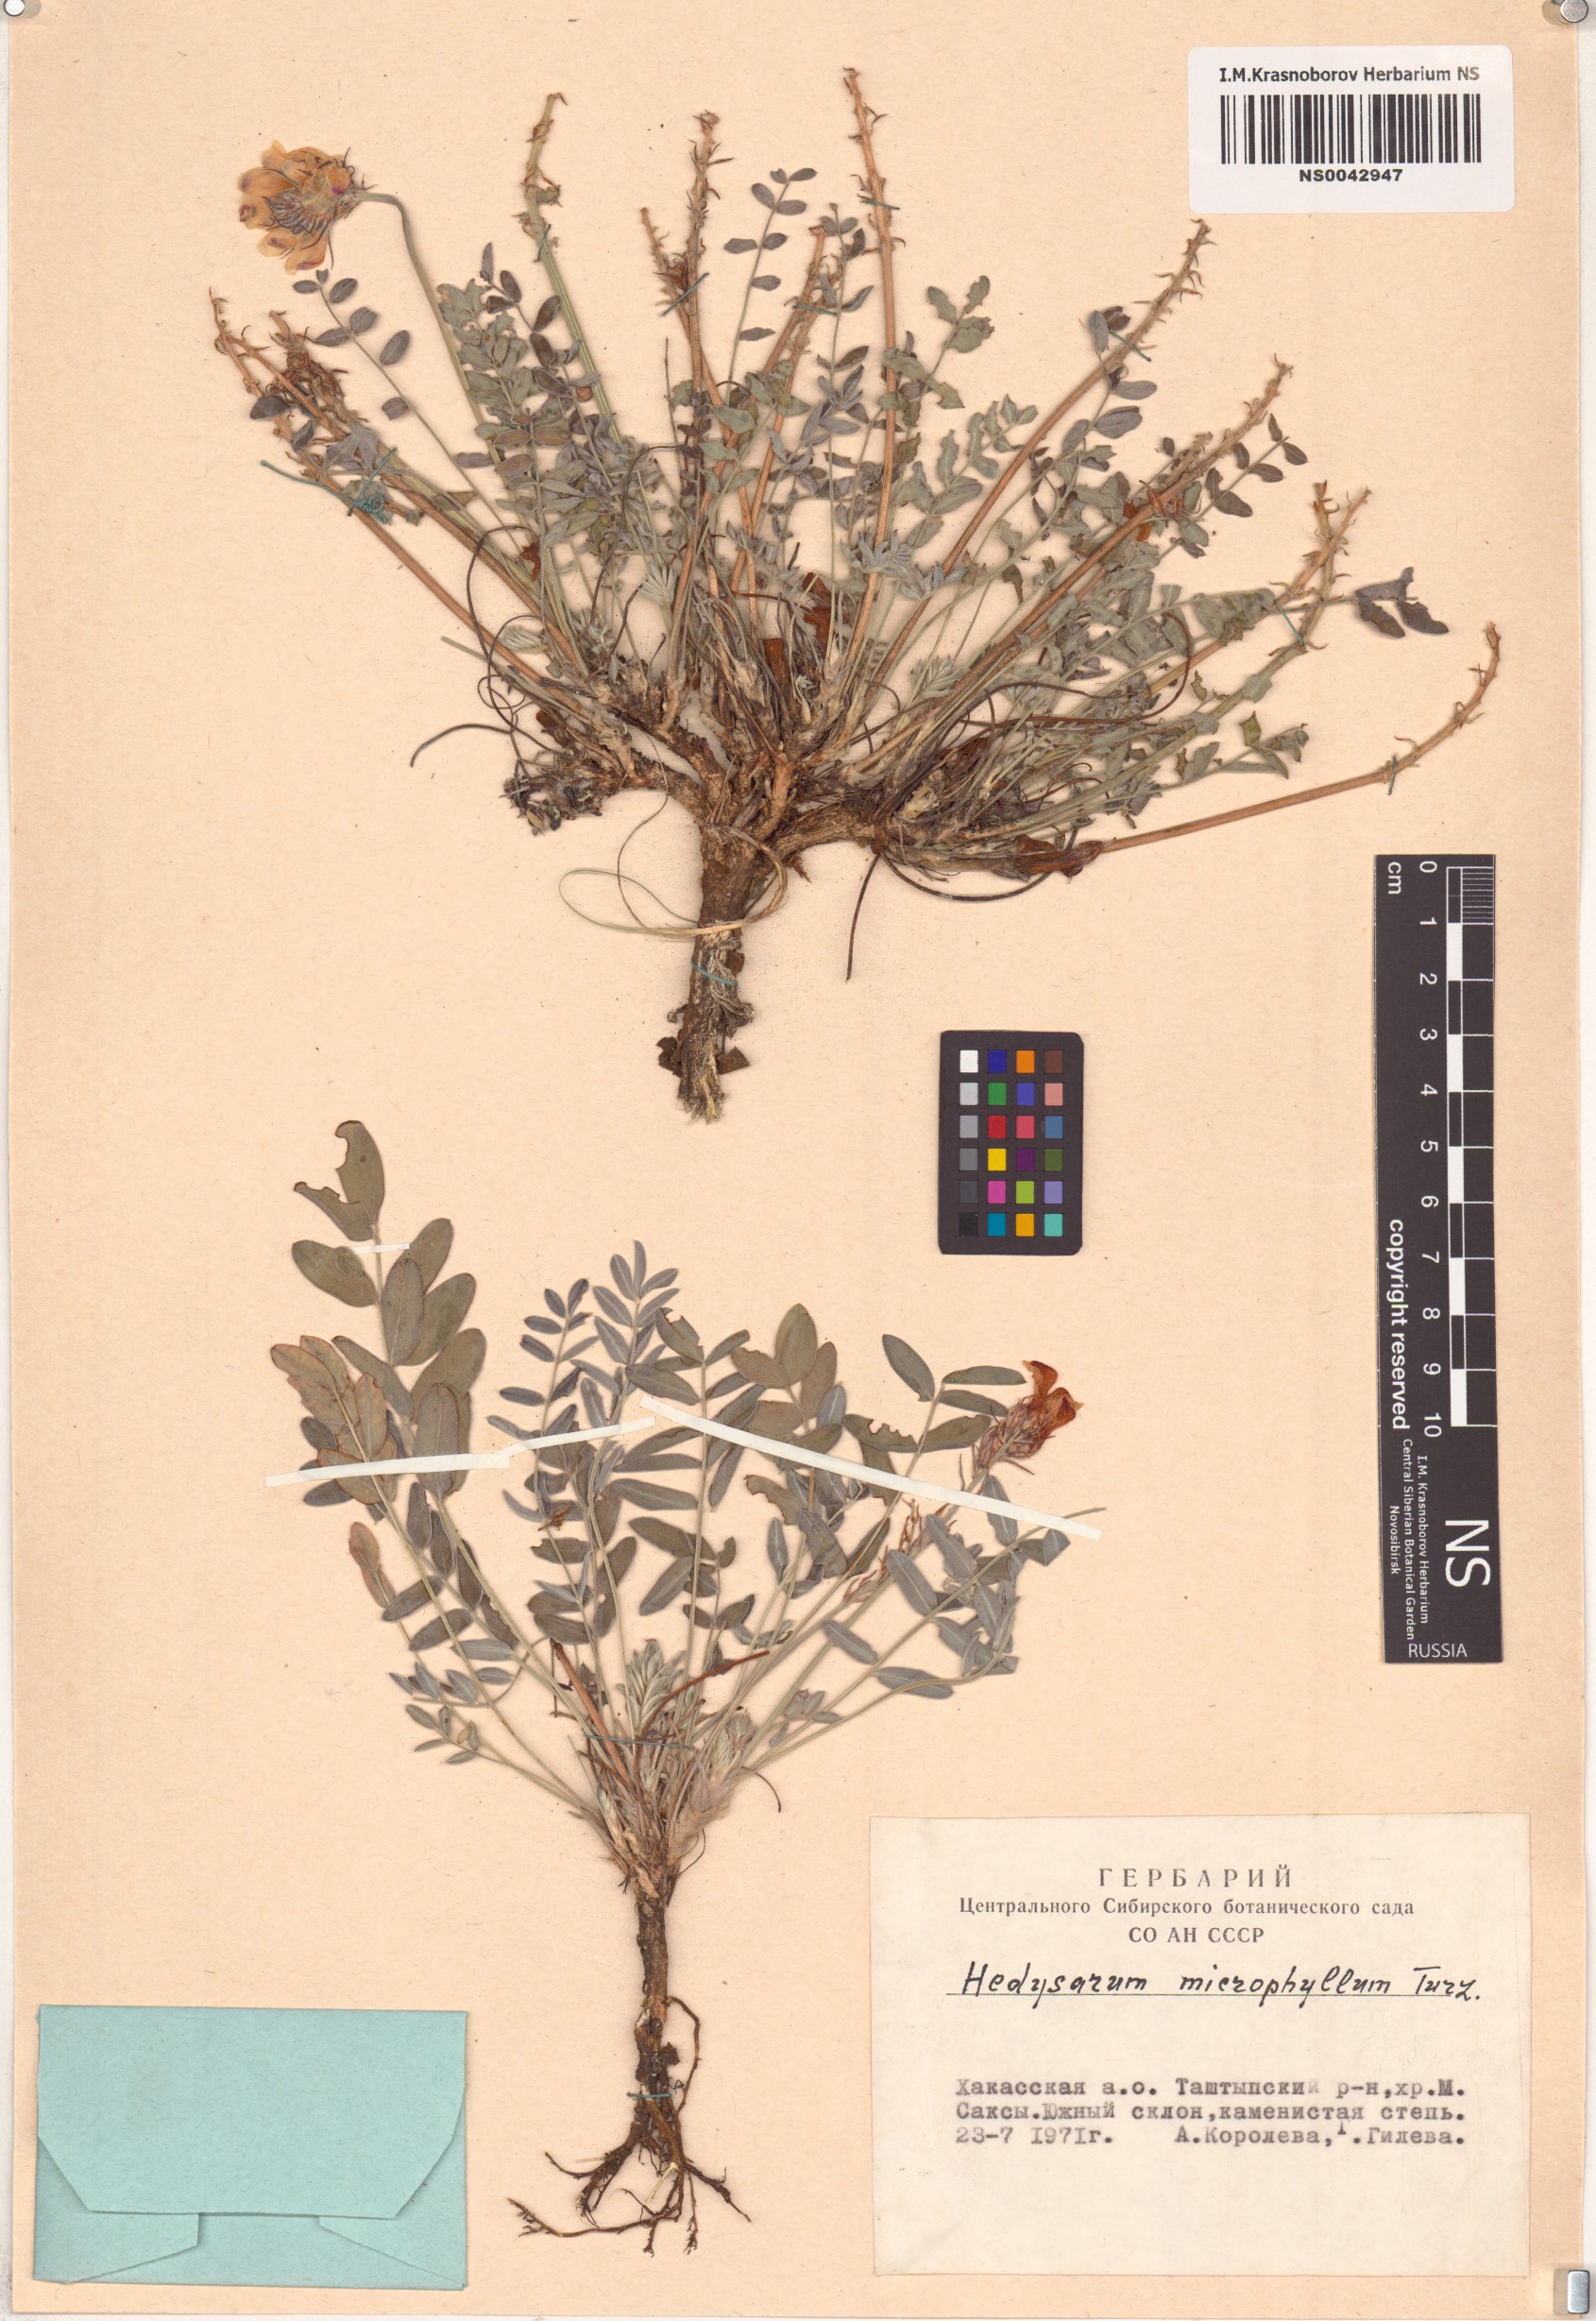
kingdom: Plantae
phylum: Tracheophyta
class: Magnoliopsida
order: Fabales
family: Fabaceae
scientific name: Fabaceae
